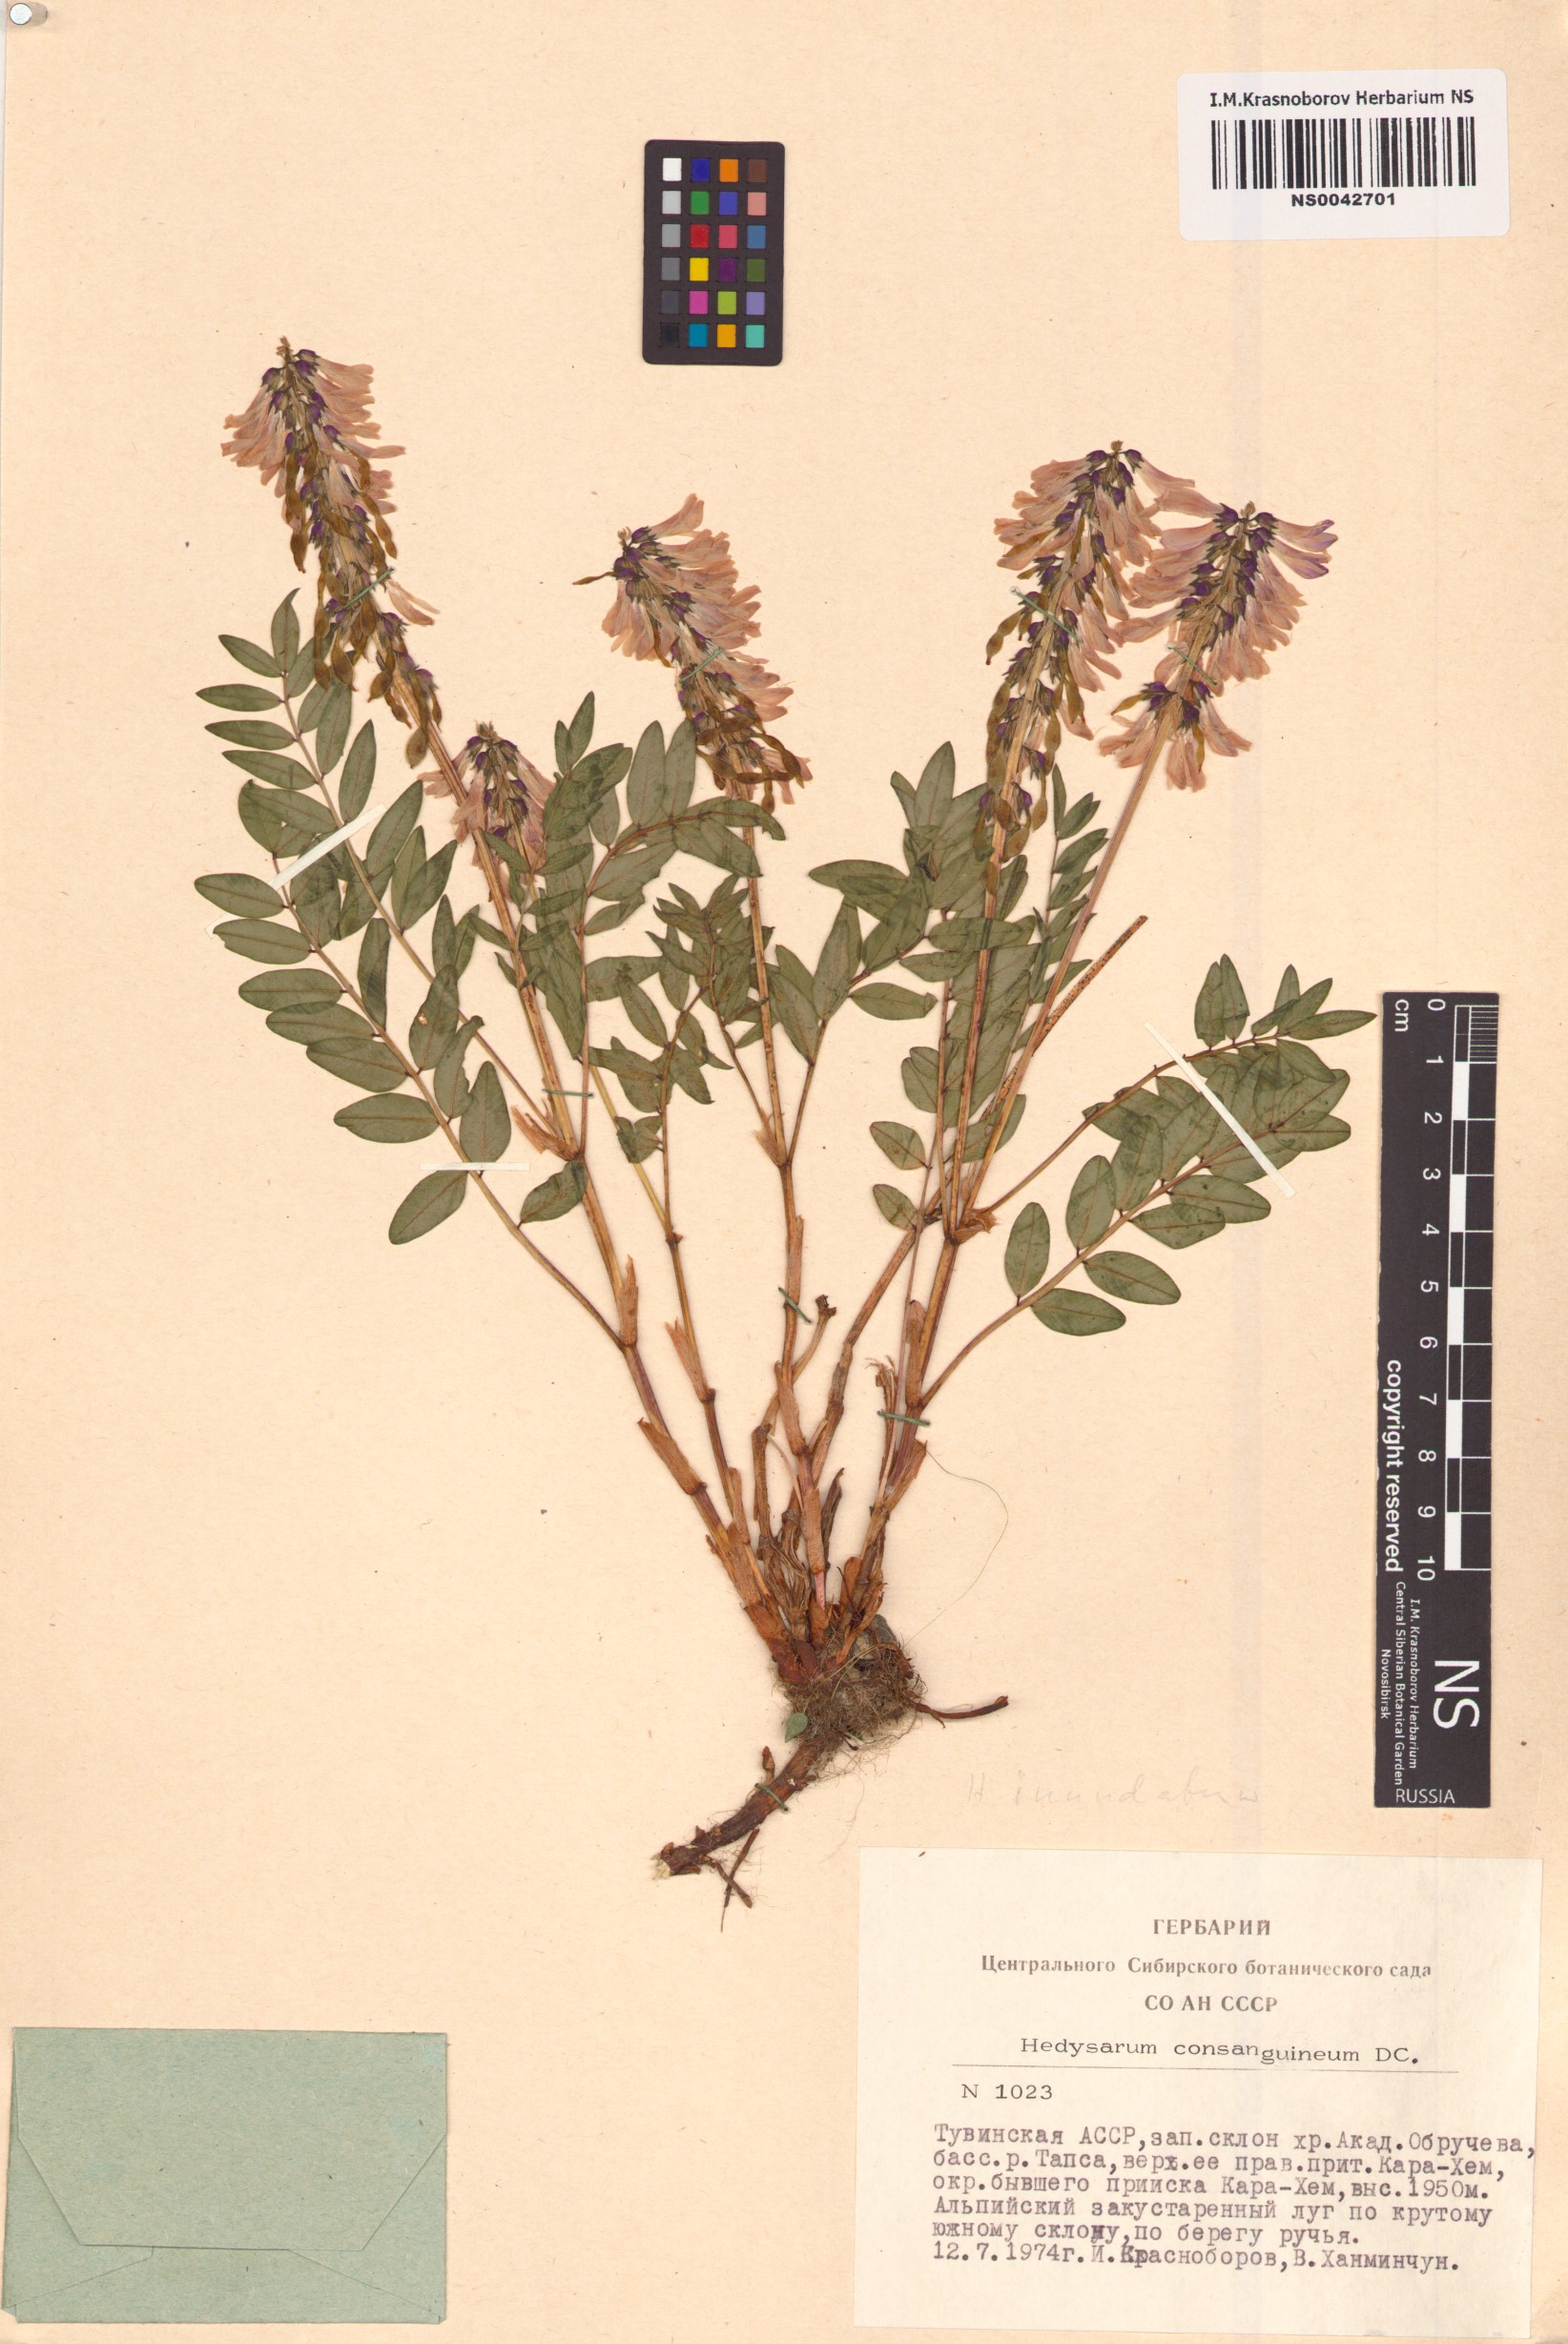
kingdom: Plantae
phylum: Tracheophyta
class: Magnoliopsida
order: Fabales
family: Fabaceae
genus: Hedysarum
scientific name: Hedysarum consanguineum
